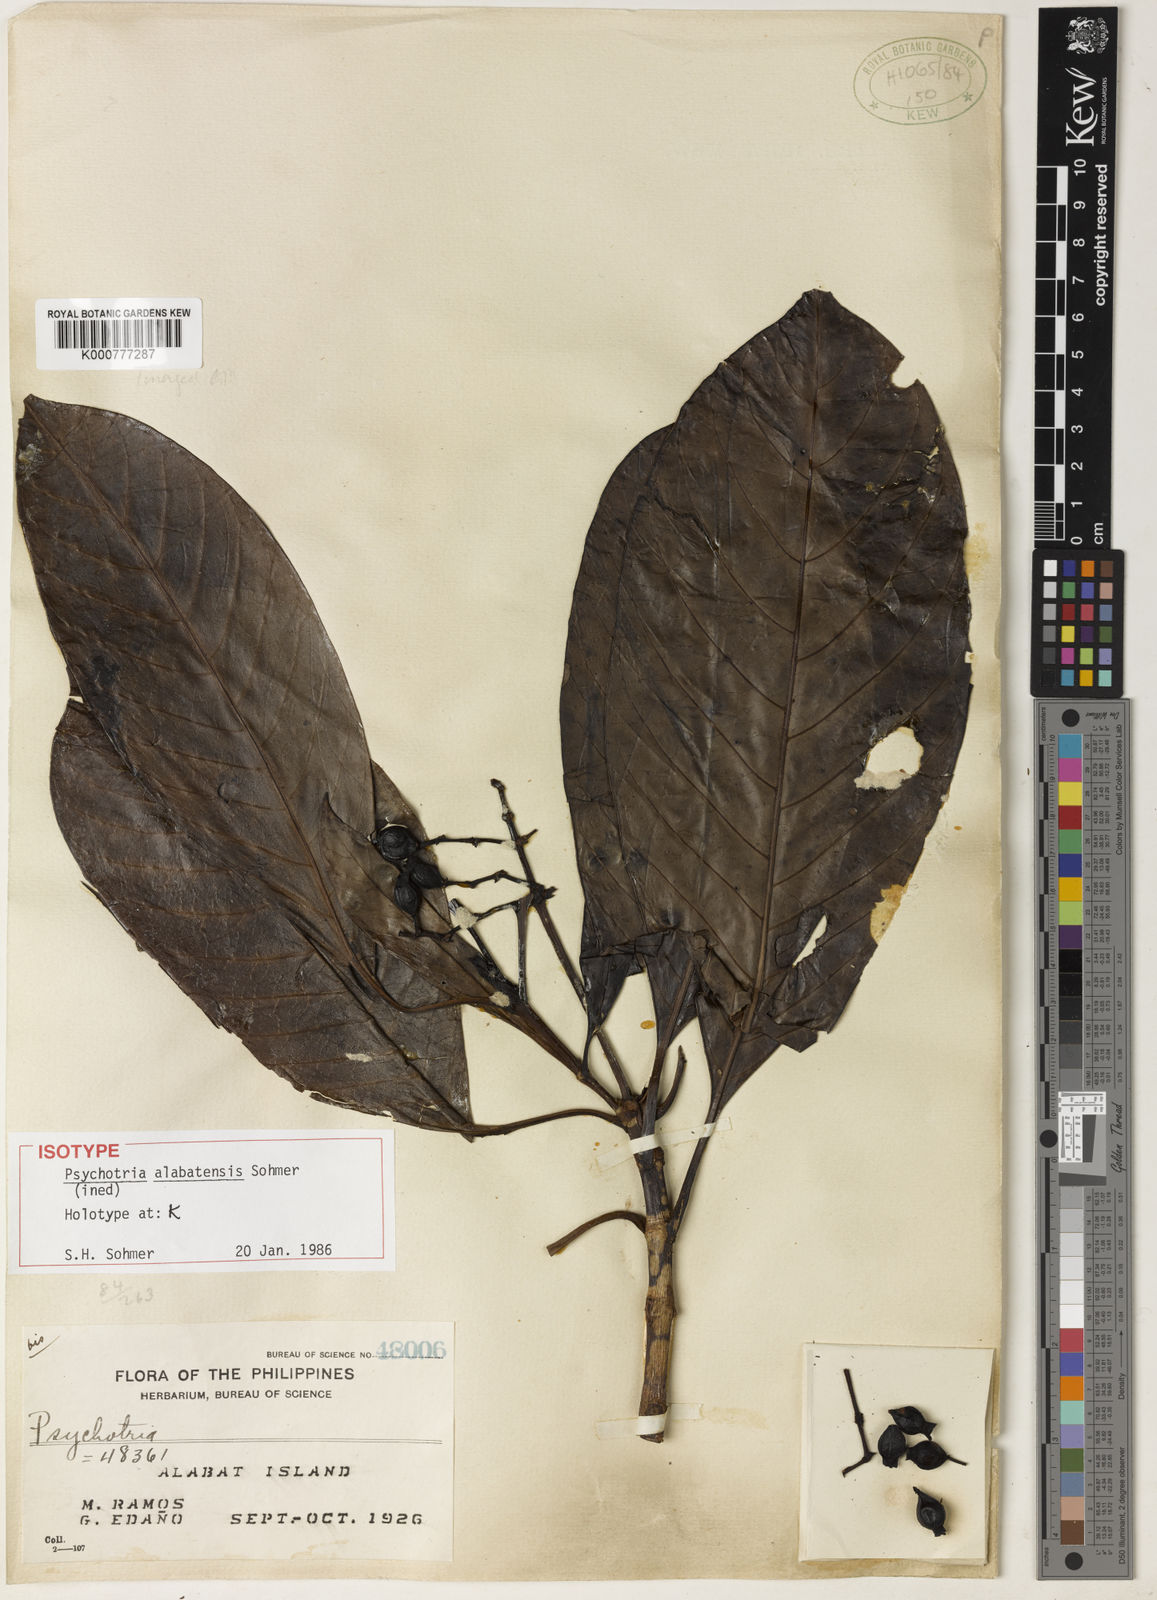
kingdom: Plantae
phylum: Tracheophyta
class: Magnoliopsida
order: Gentianales
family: Rubiaceae
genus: Psychotria
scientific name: Psychotria alabatensis
